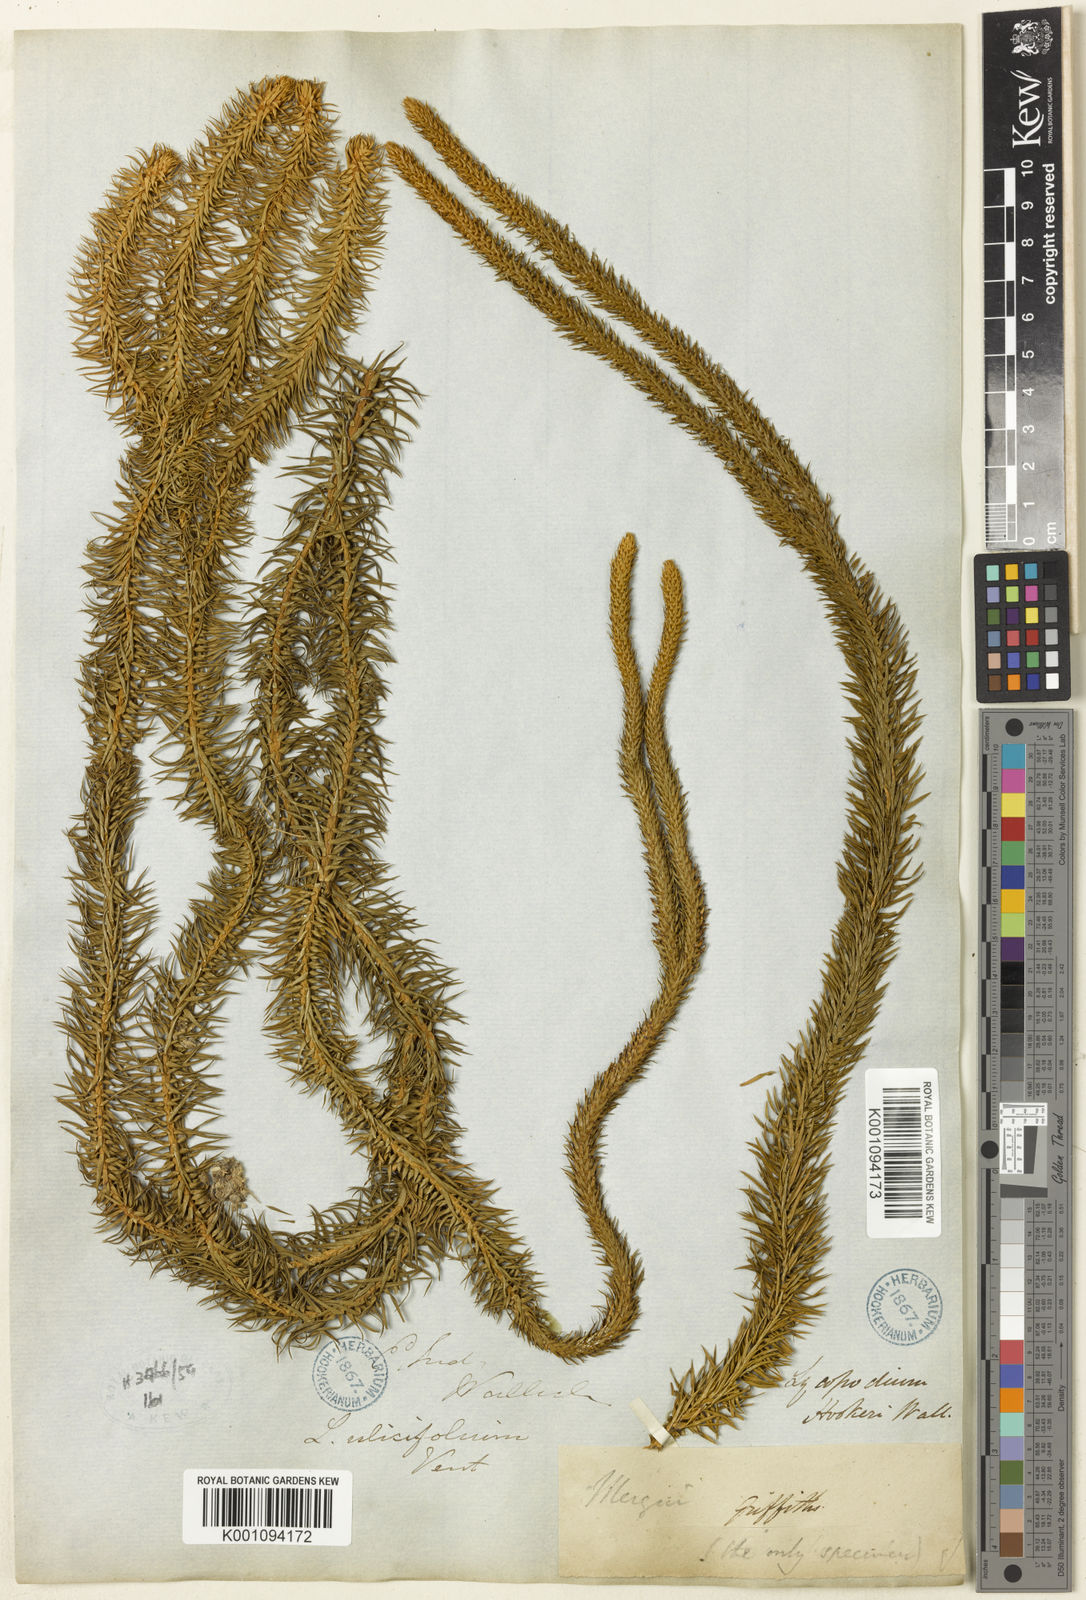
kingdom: Plantae
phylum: Tracheophyta
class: Lycopodiopsida
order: Lycopodiales
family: Lycopodiaceae
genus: Phlegmariurus
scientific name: Phlegmariurus squarrosus
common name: Rock tassel-fern
